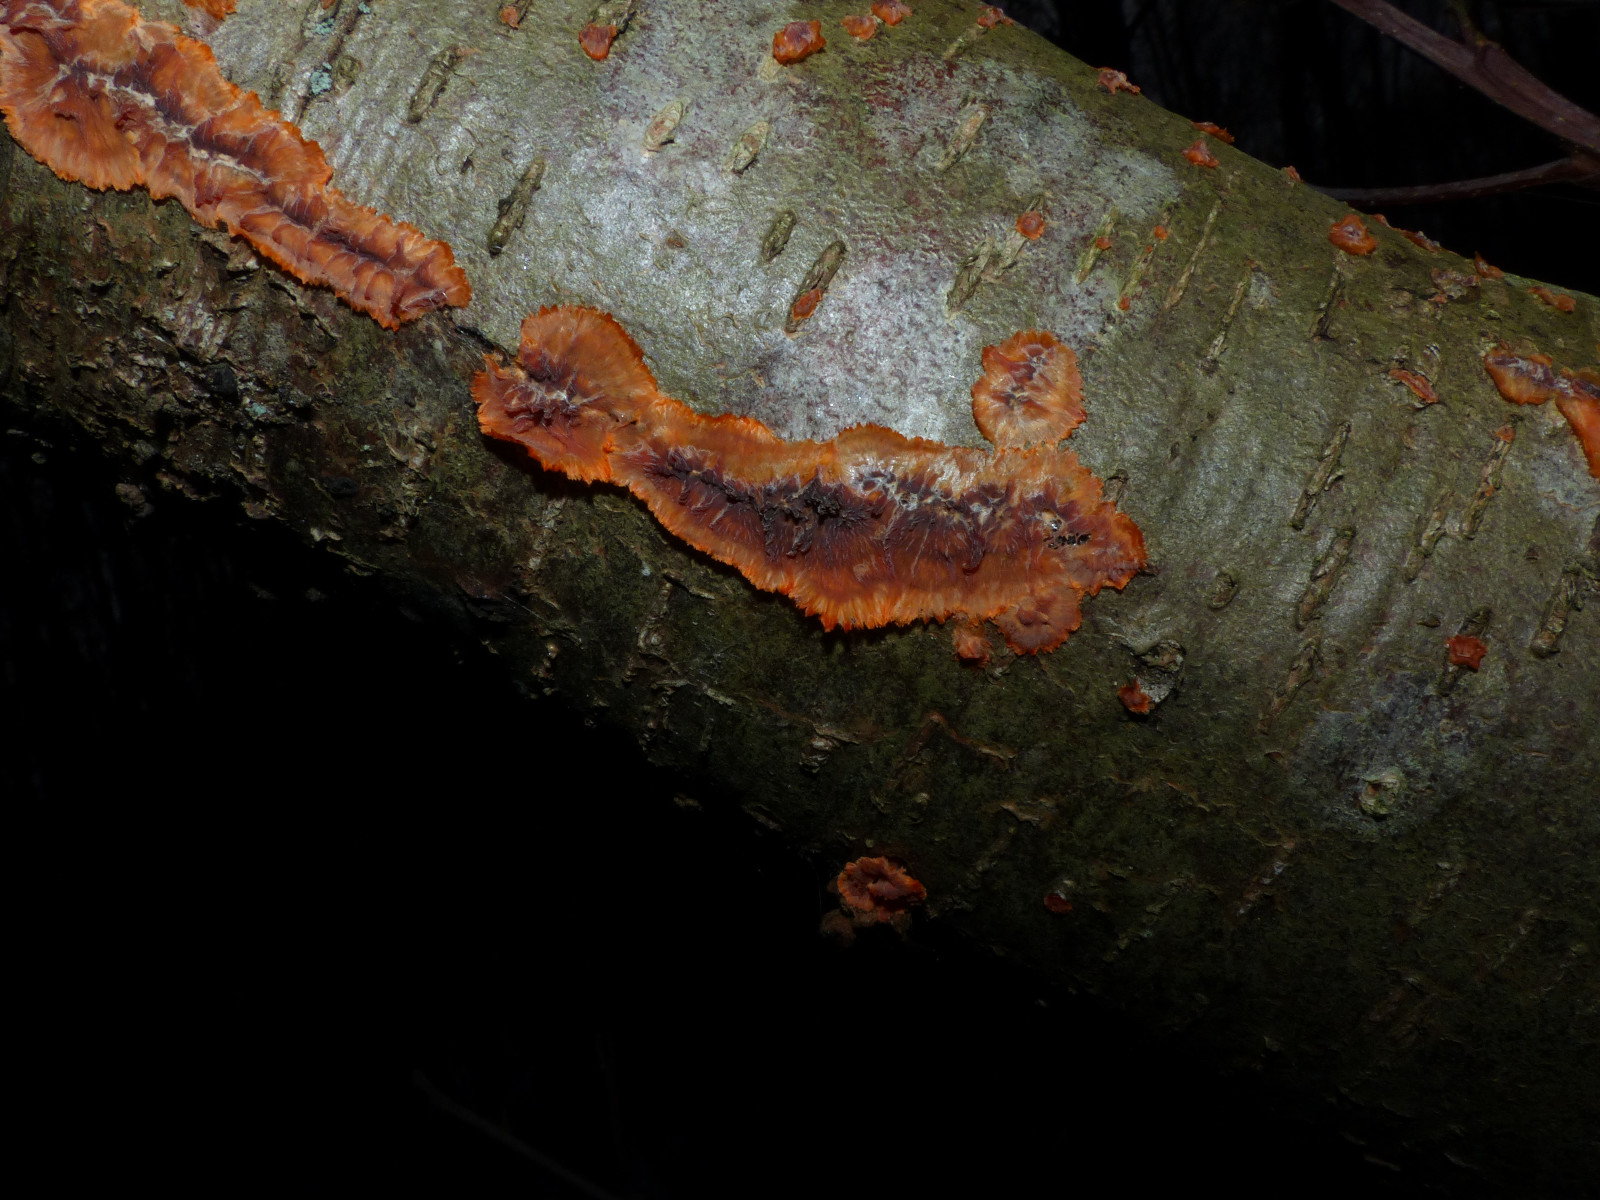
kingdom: Fungi
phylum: Basidiomycota
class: Agaricomycetes
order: Polyporales
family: Meruliaceae
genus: Phlebia
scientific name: Phlebia radiata
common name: stråle-åresvamp
